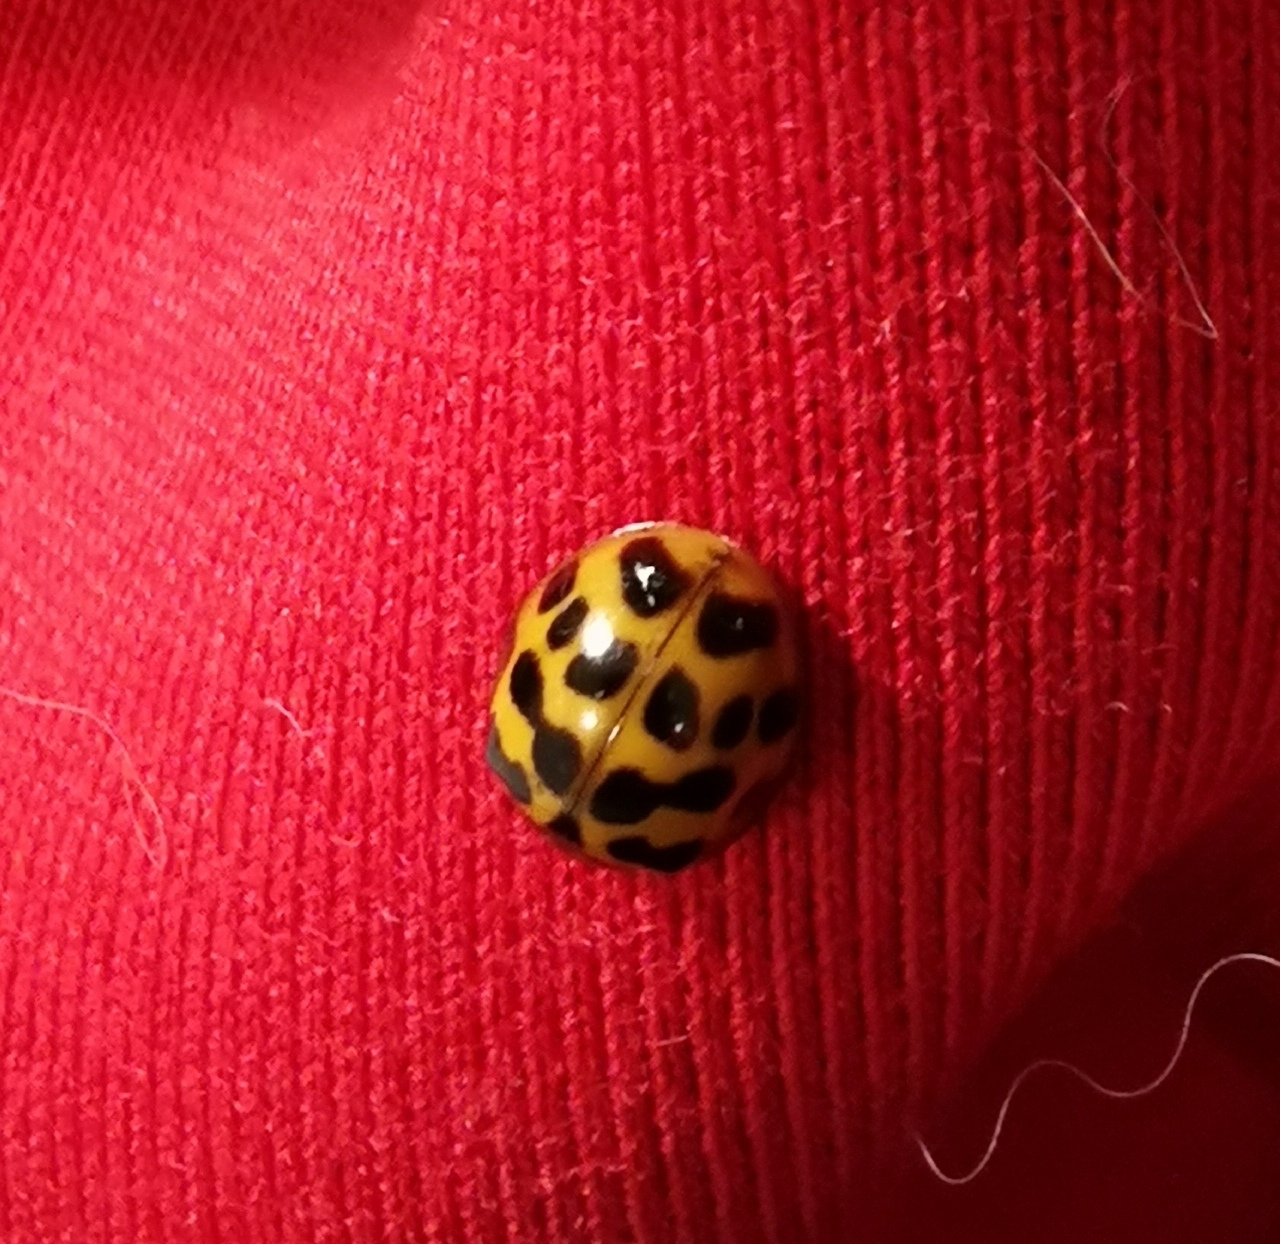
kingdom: Animalia
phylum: Arthropoda
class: Insecta
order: Coleoptera
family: Coccinellidae
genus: Harmonia
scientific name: Harmonia axyridis
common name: Harlekinmariehøne
